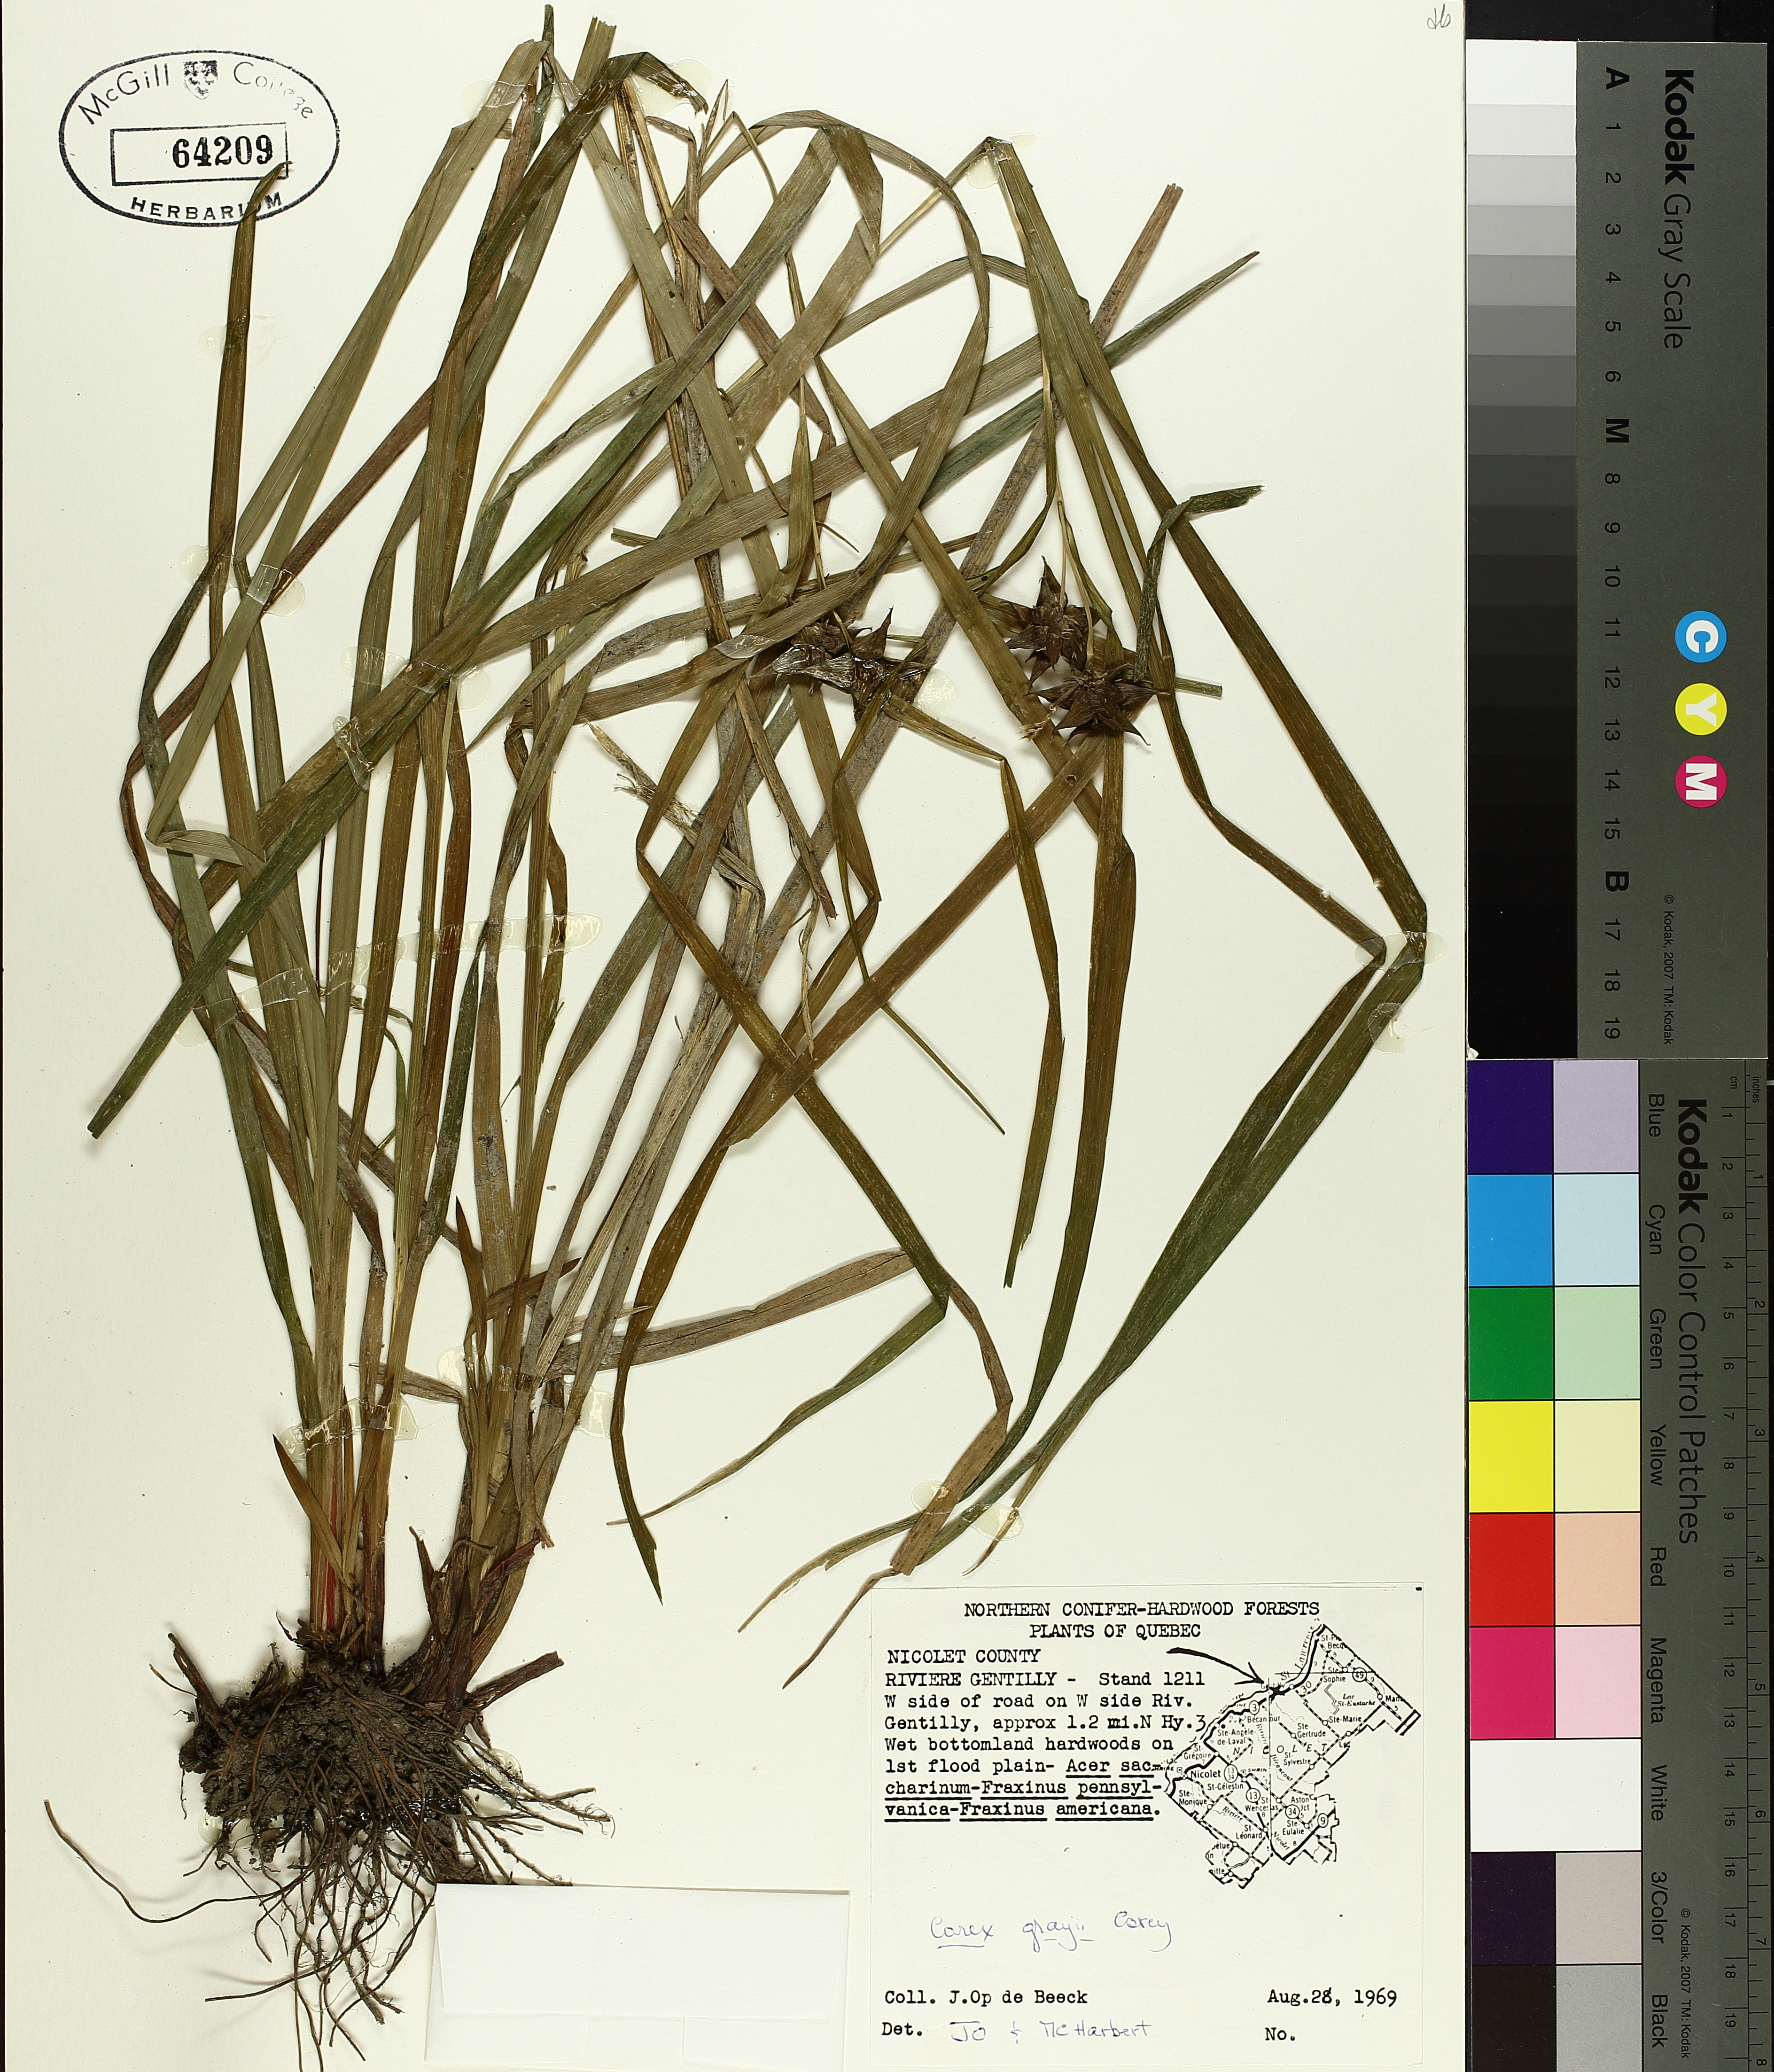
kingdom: Plantae
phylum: Tracheophyta
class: Liliopsida
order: Poales
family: Cyperaceae
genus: Carex
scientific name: Carex grayi
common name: Asa gray's sedge
